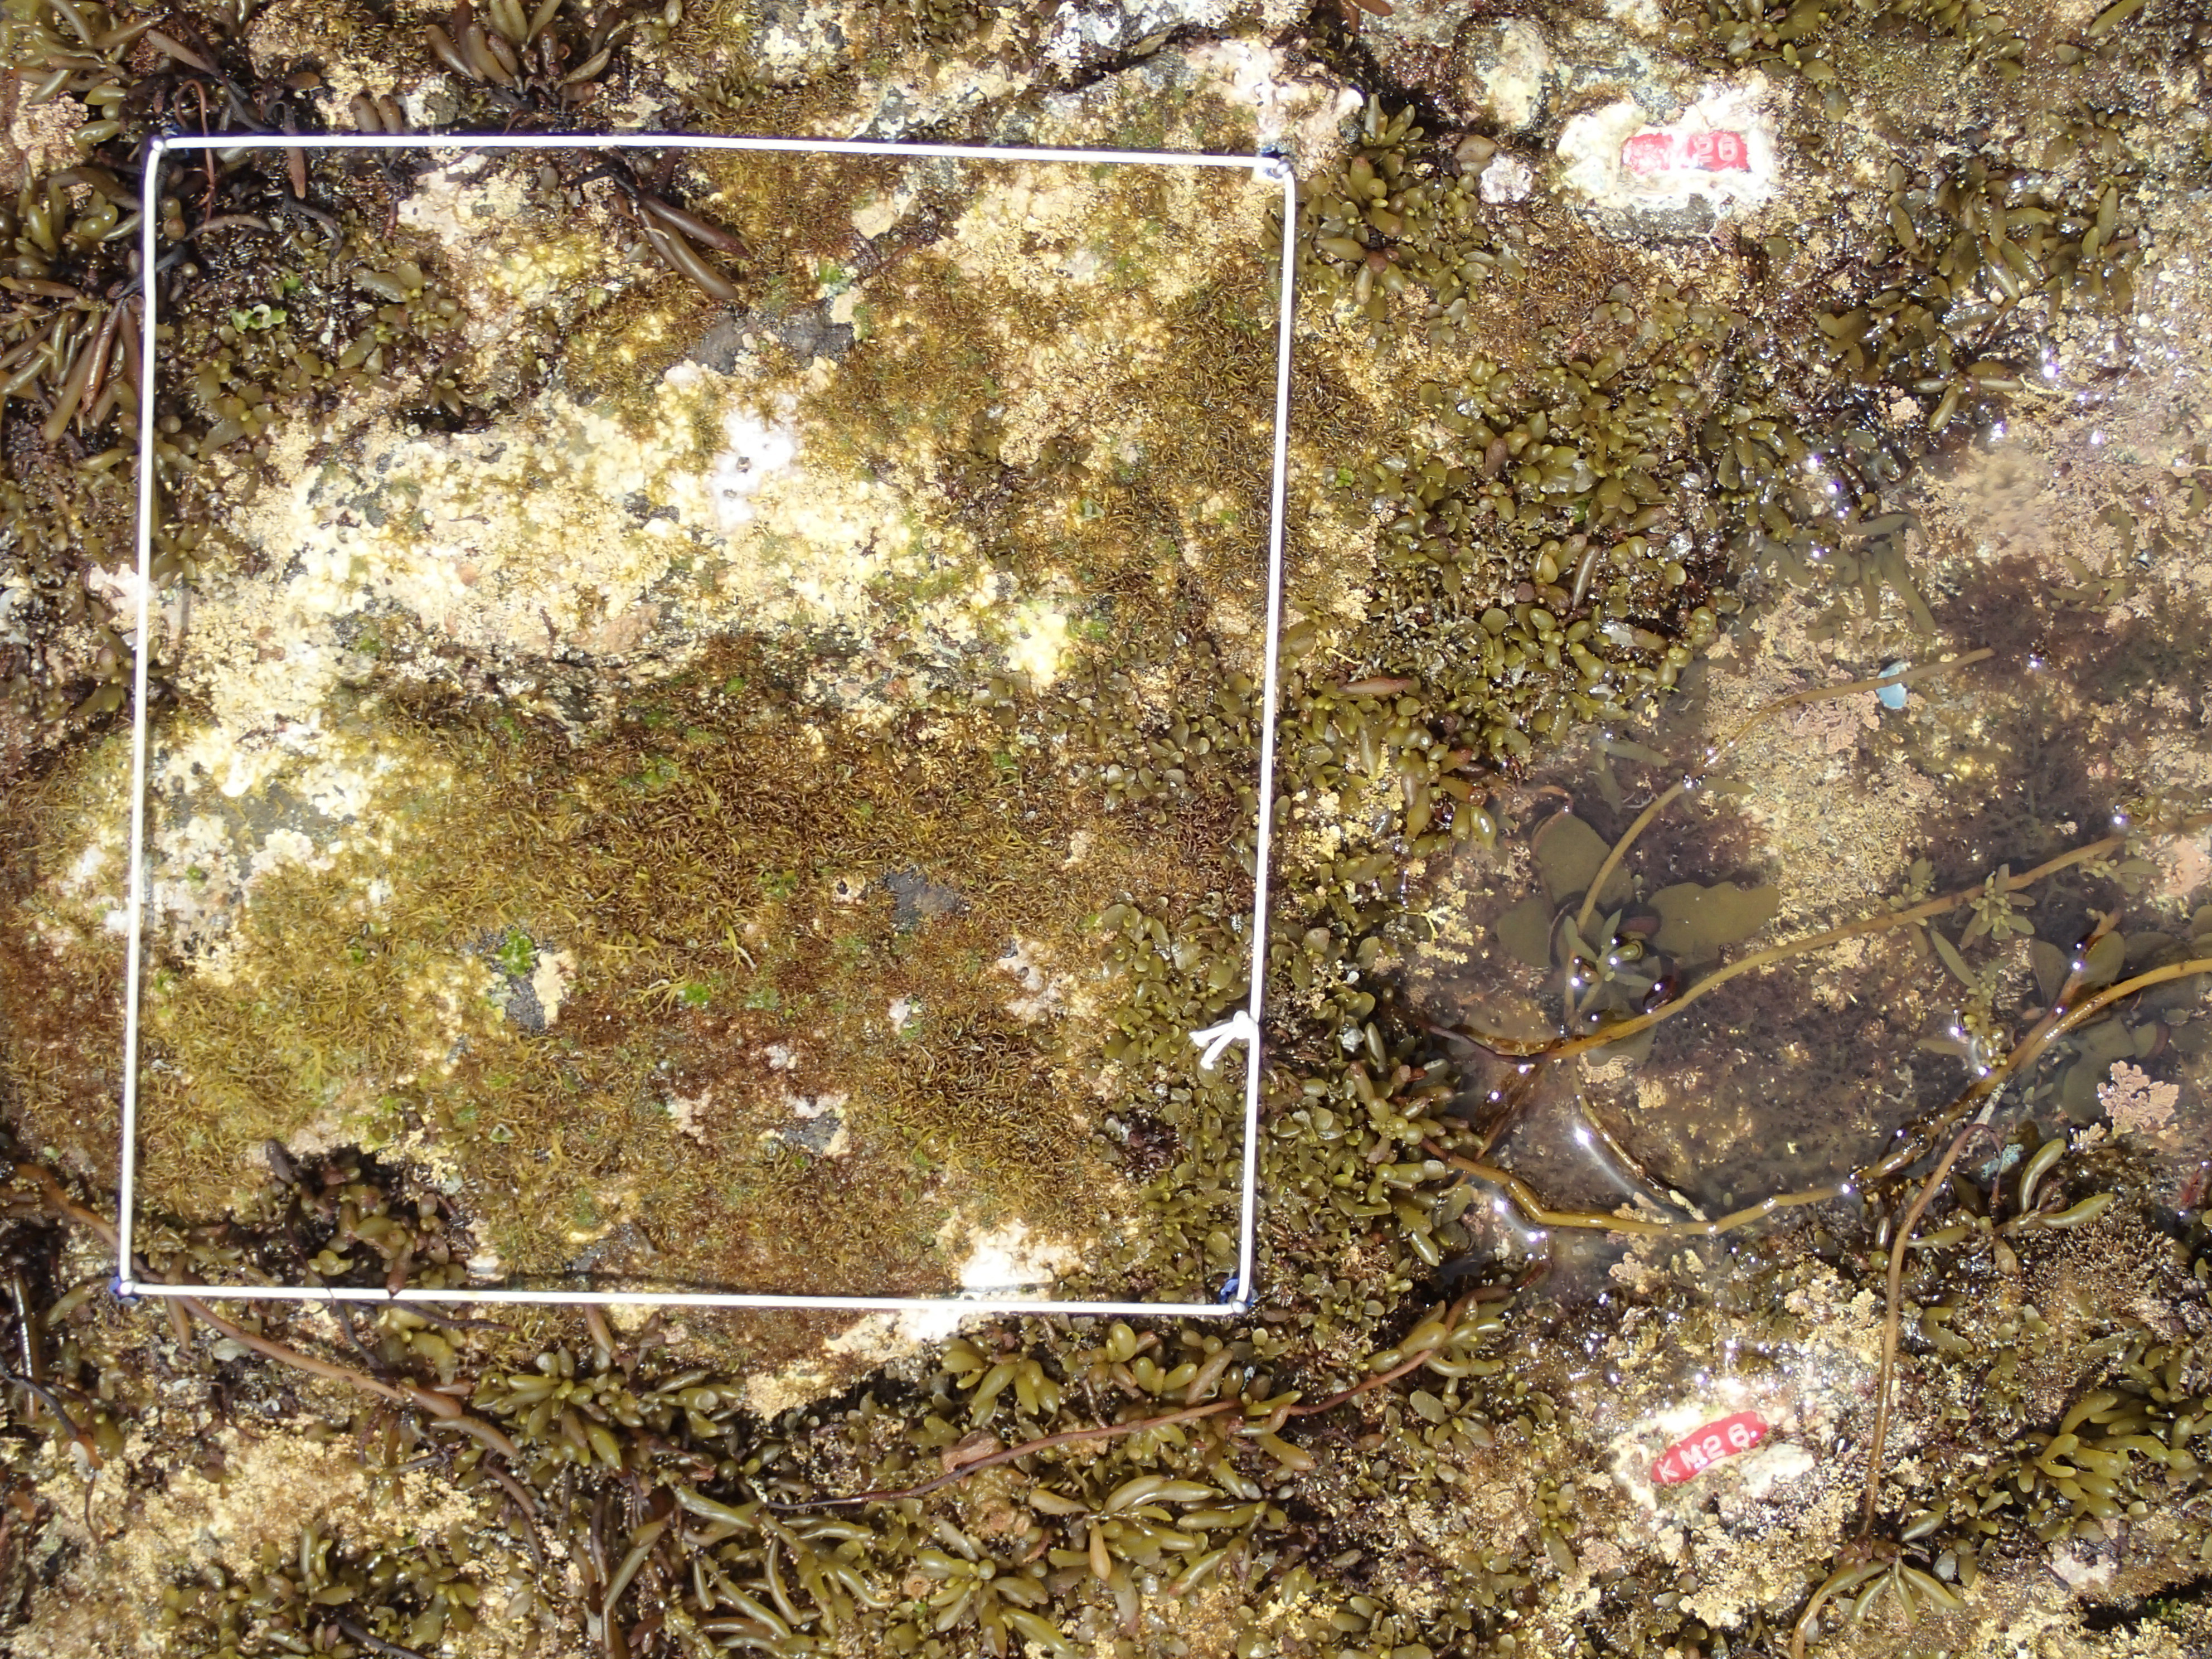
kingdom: Chromista
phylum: Ochrophyta
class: Phaeophyceae
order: Fucales
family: Sargassaceae
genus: Sargassum
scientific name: Sargassum fusiforme
